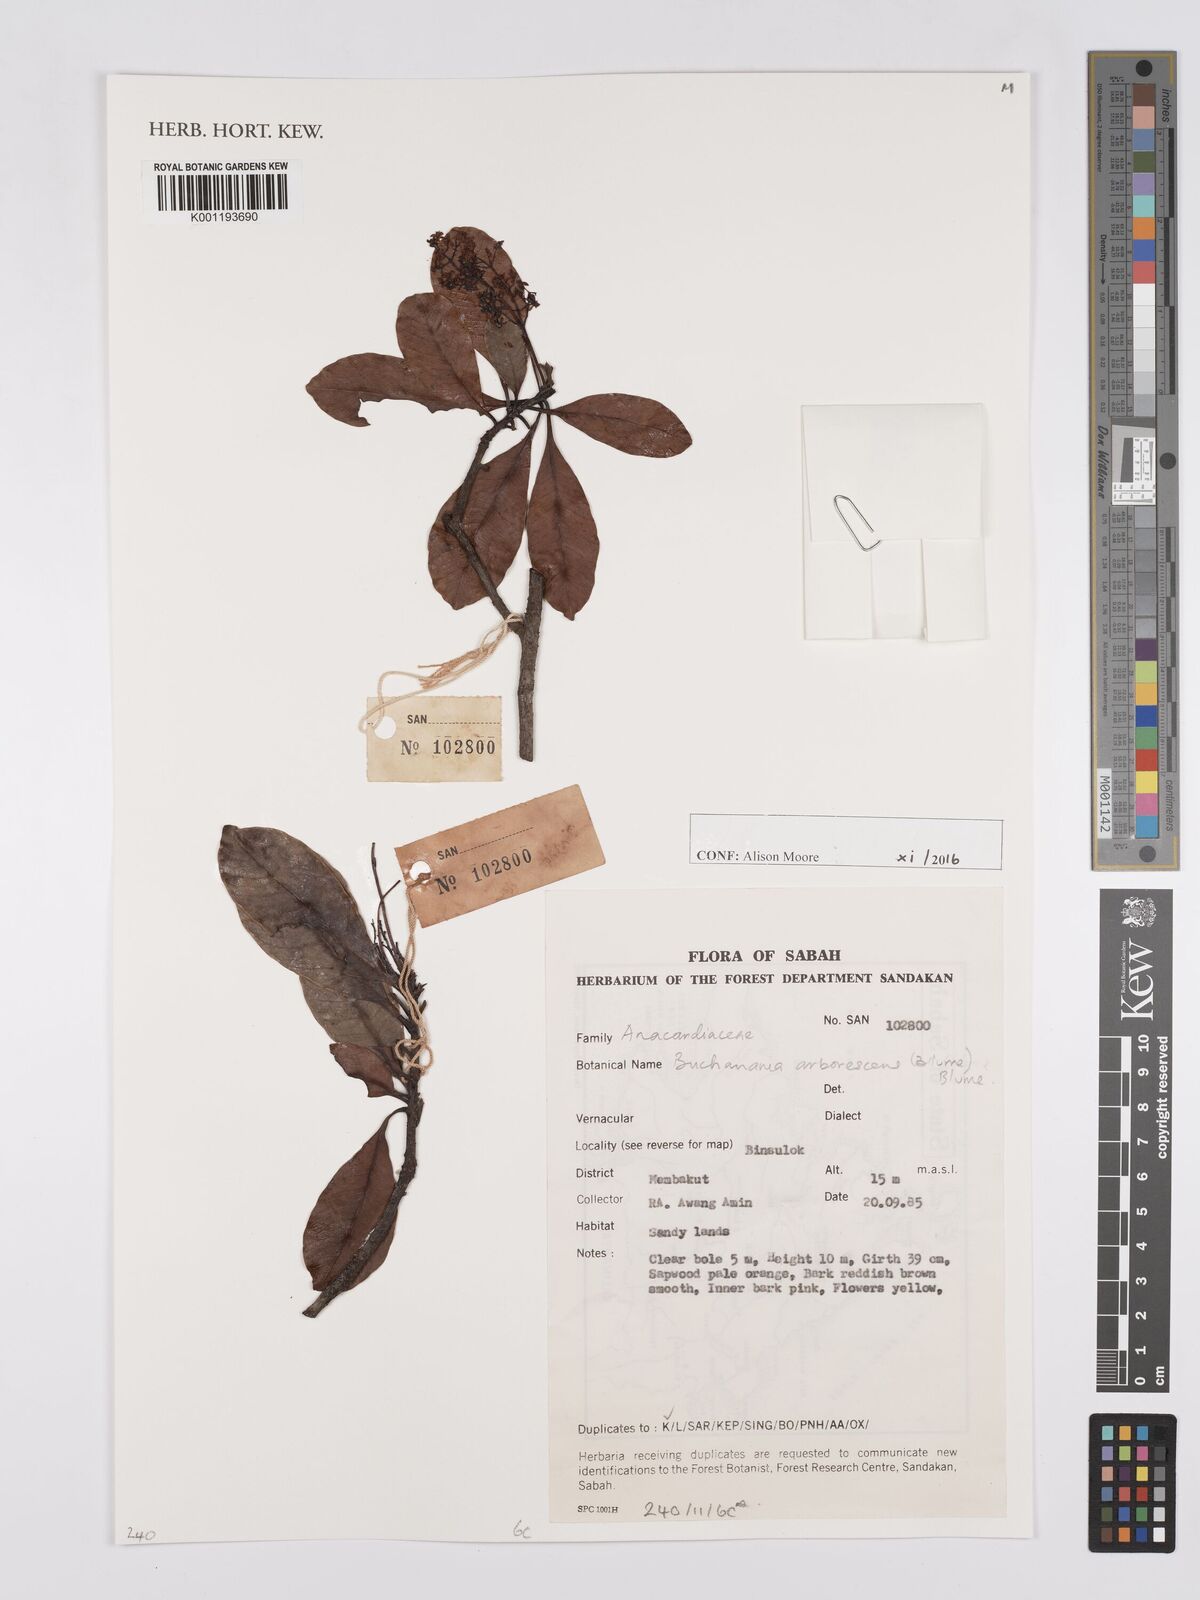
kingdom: Plantae
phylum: Tracheophyta
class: Magnoliopsida
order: Sapindales
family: Anacardiaceae
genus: Buchanania
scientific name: Buchanania arborescens
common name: Sparrow’s mango
